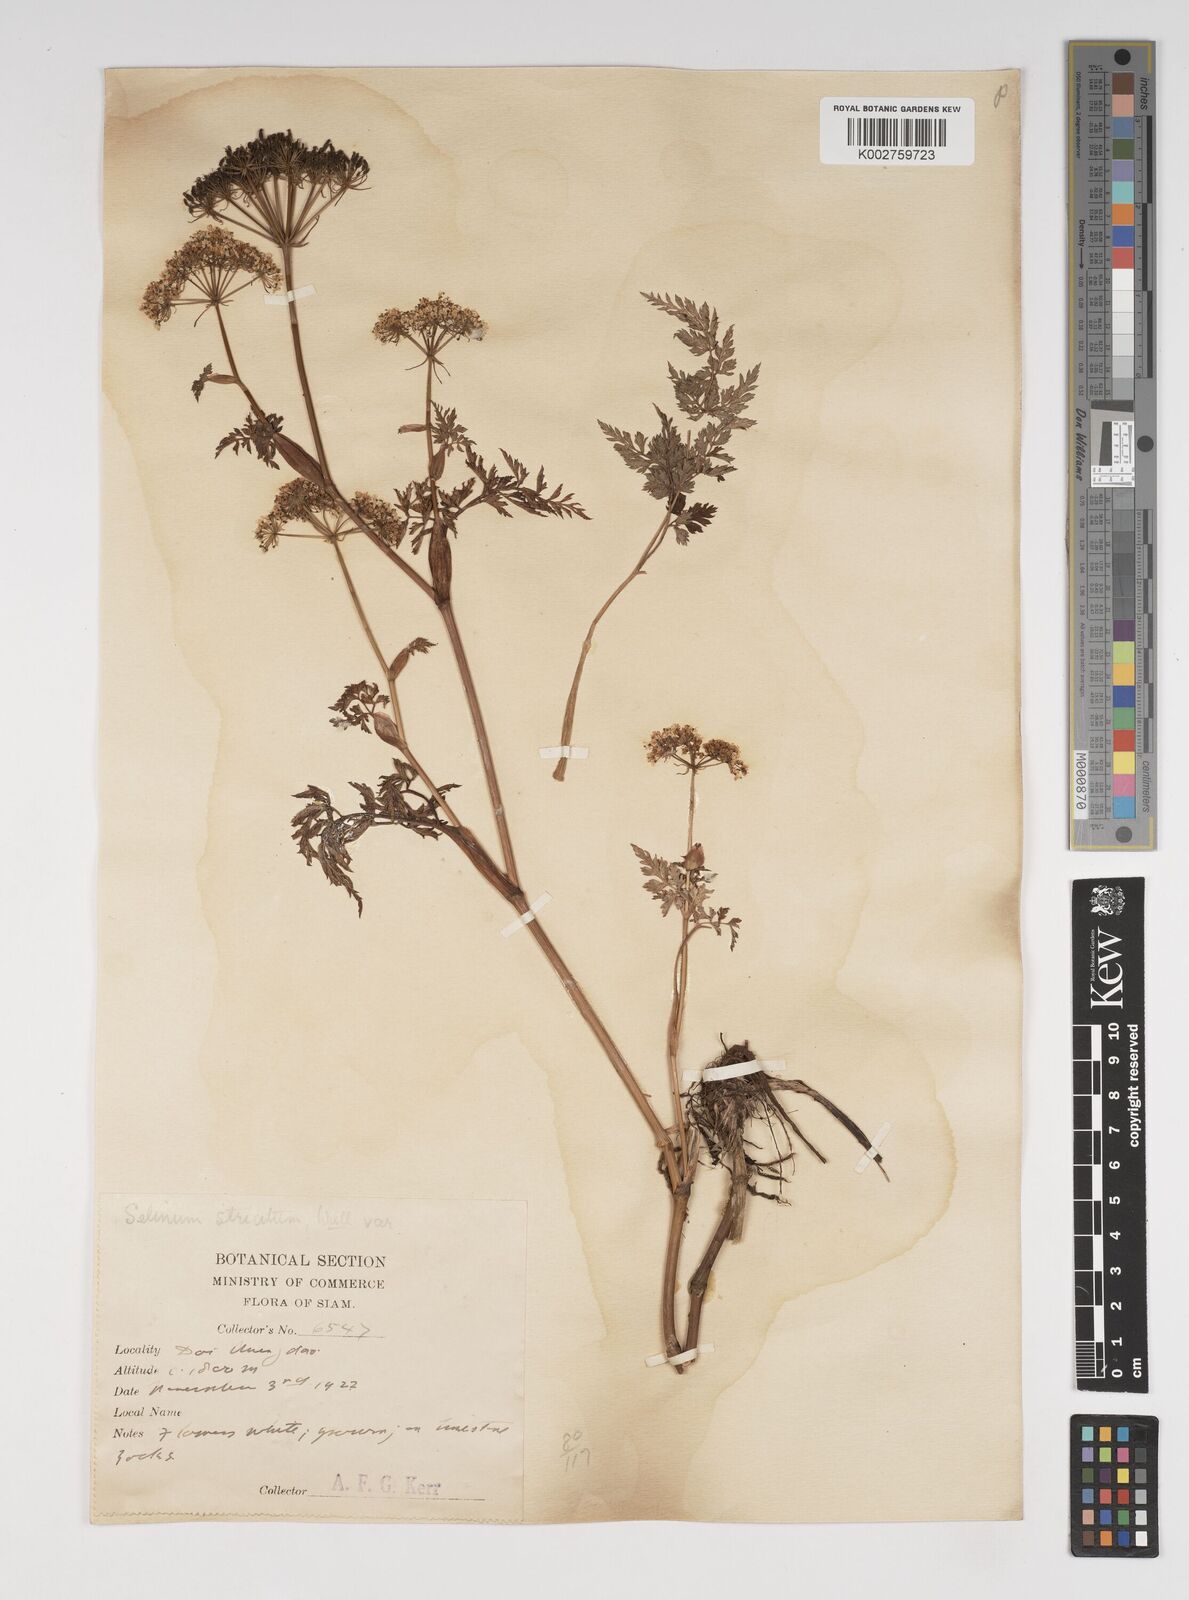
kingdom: Plantae
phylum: Tracheophyta
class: Magnoliopsida
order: Apiales
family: Apiaceae
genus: Oreocome
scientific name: Oreocome striata
